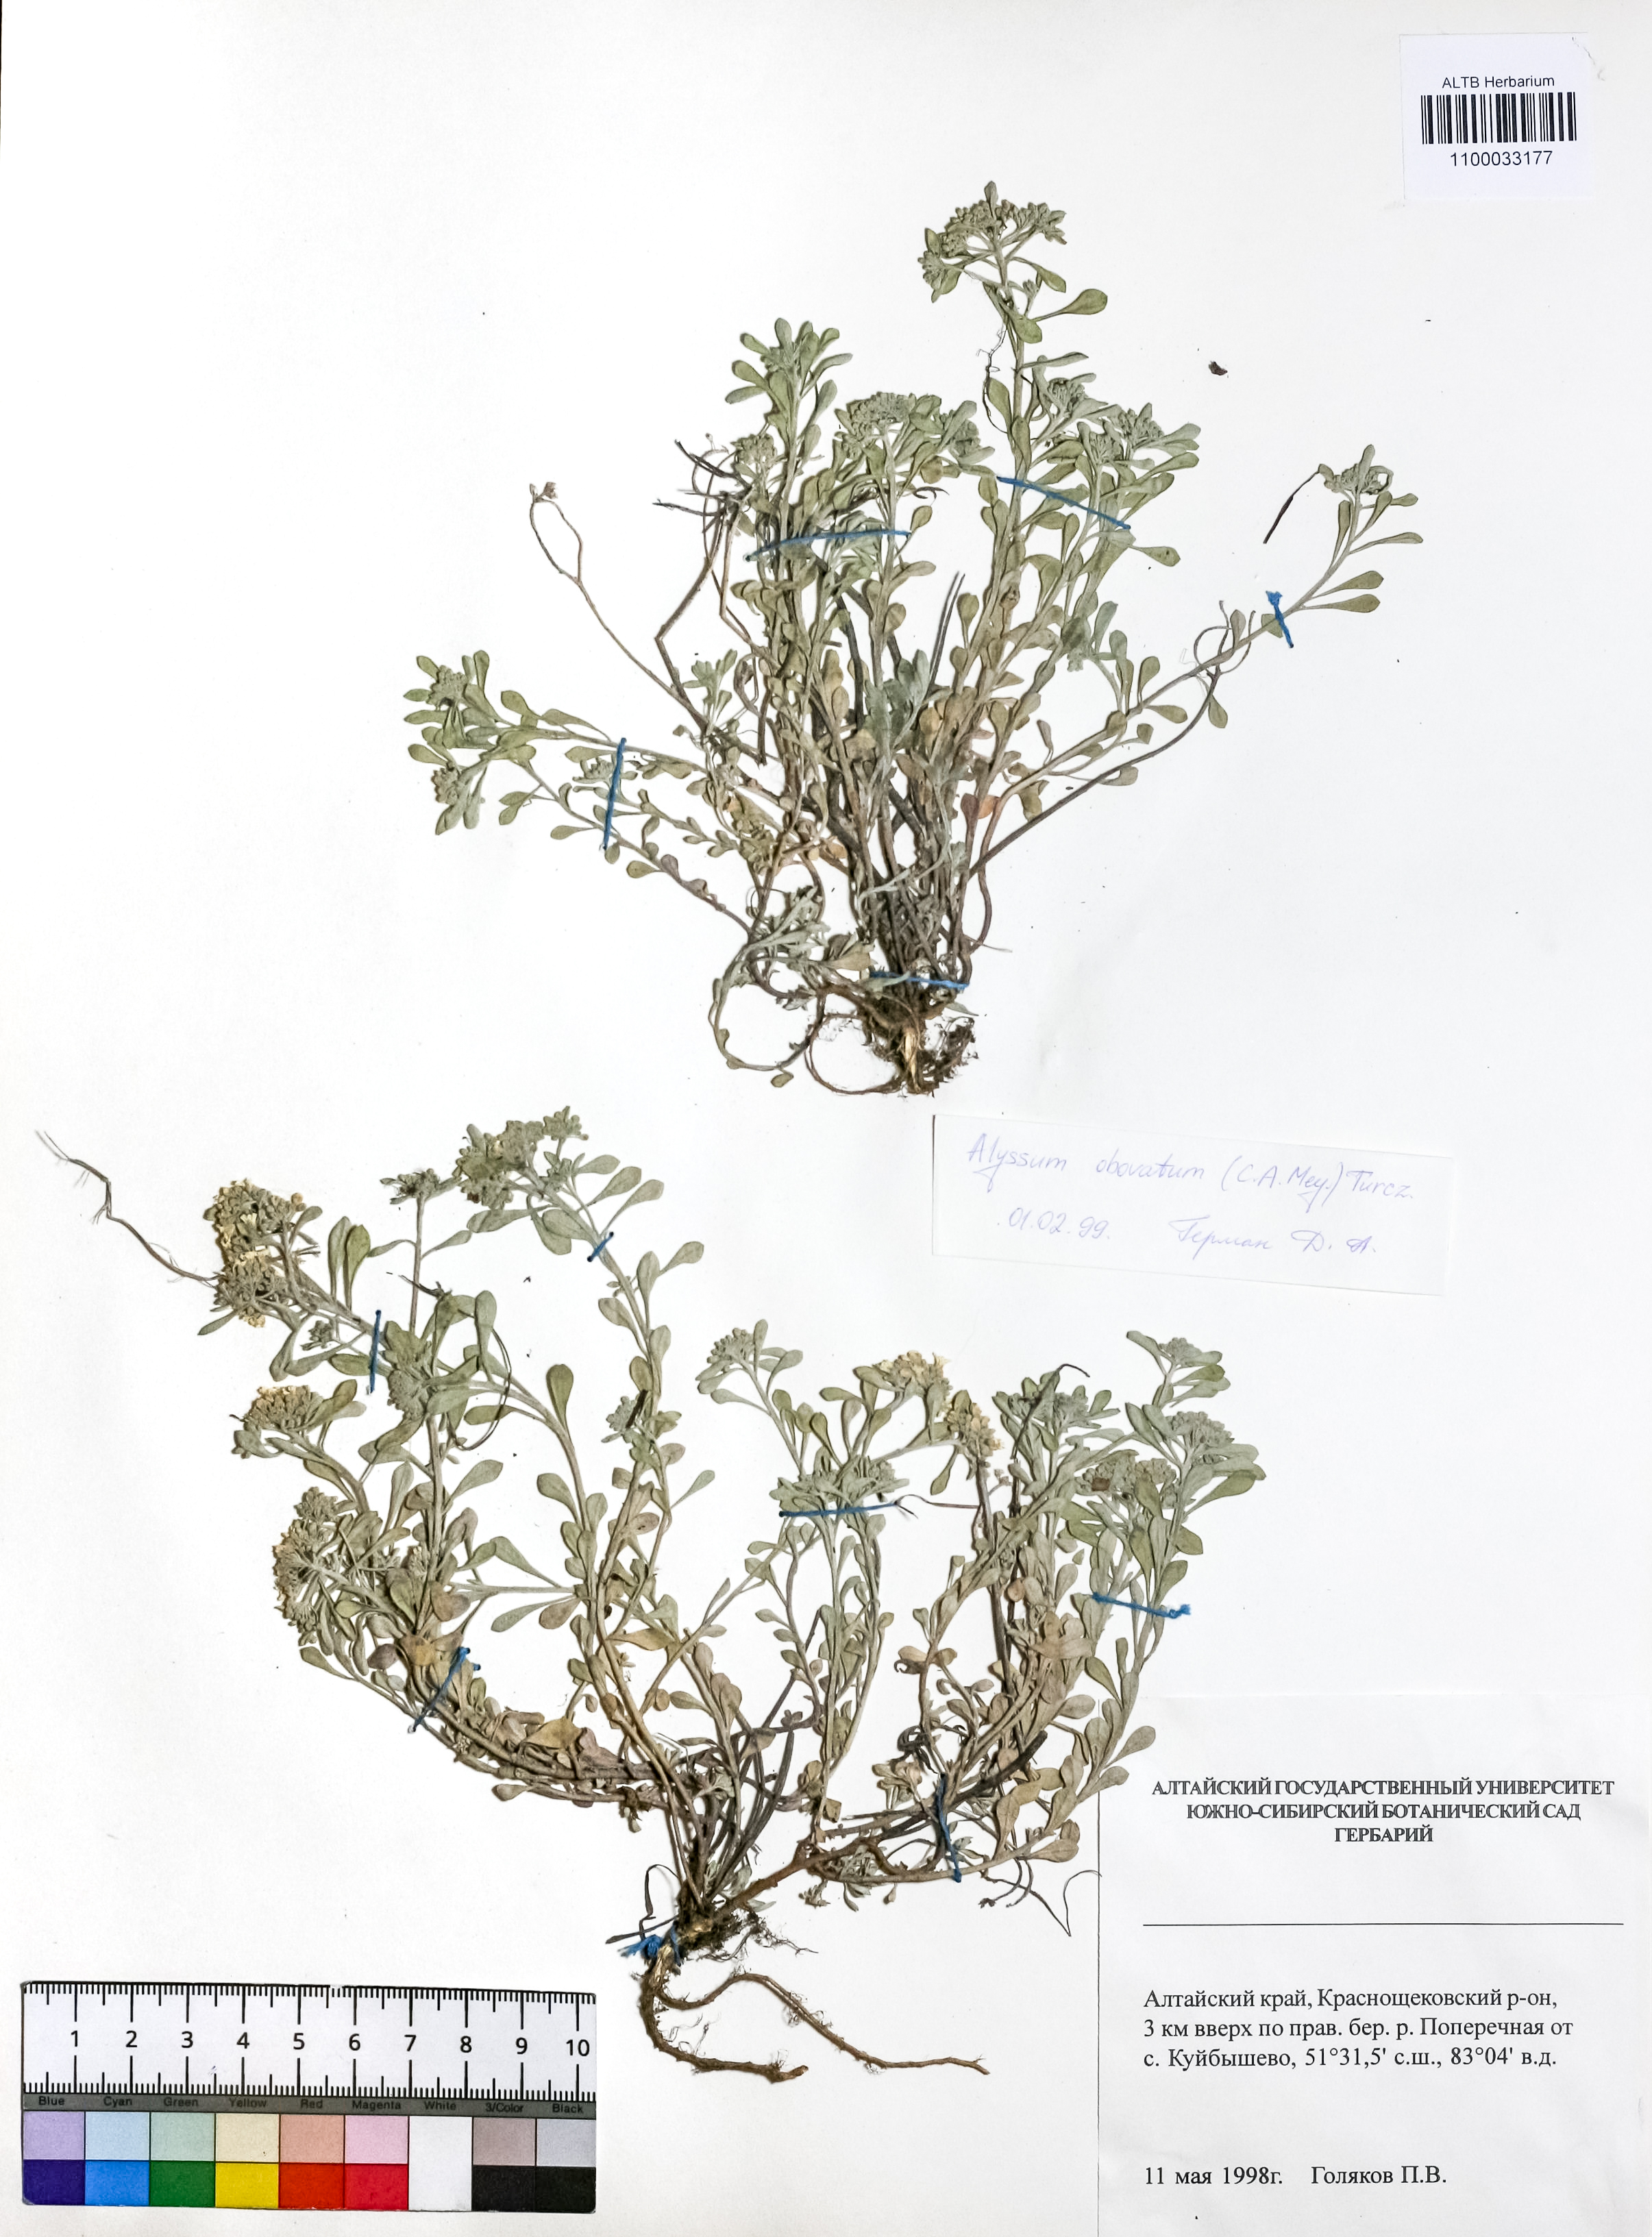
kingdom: Plantae
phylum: Tracheophyta
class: Magnoliopsida
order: Brassicales
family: Brassicaceae
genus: Odontarrhena
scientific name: Odontarrhena obovata
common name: American alyssum
